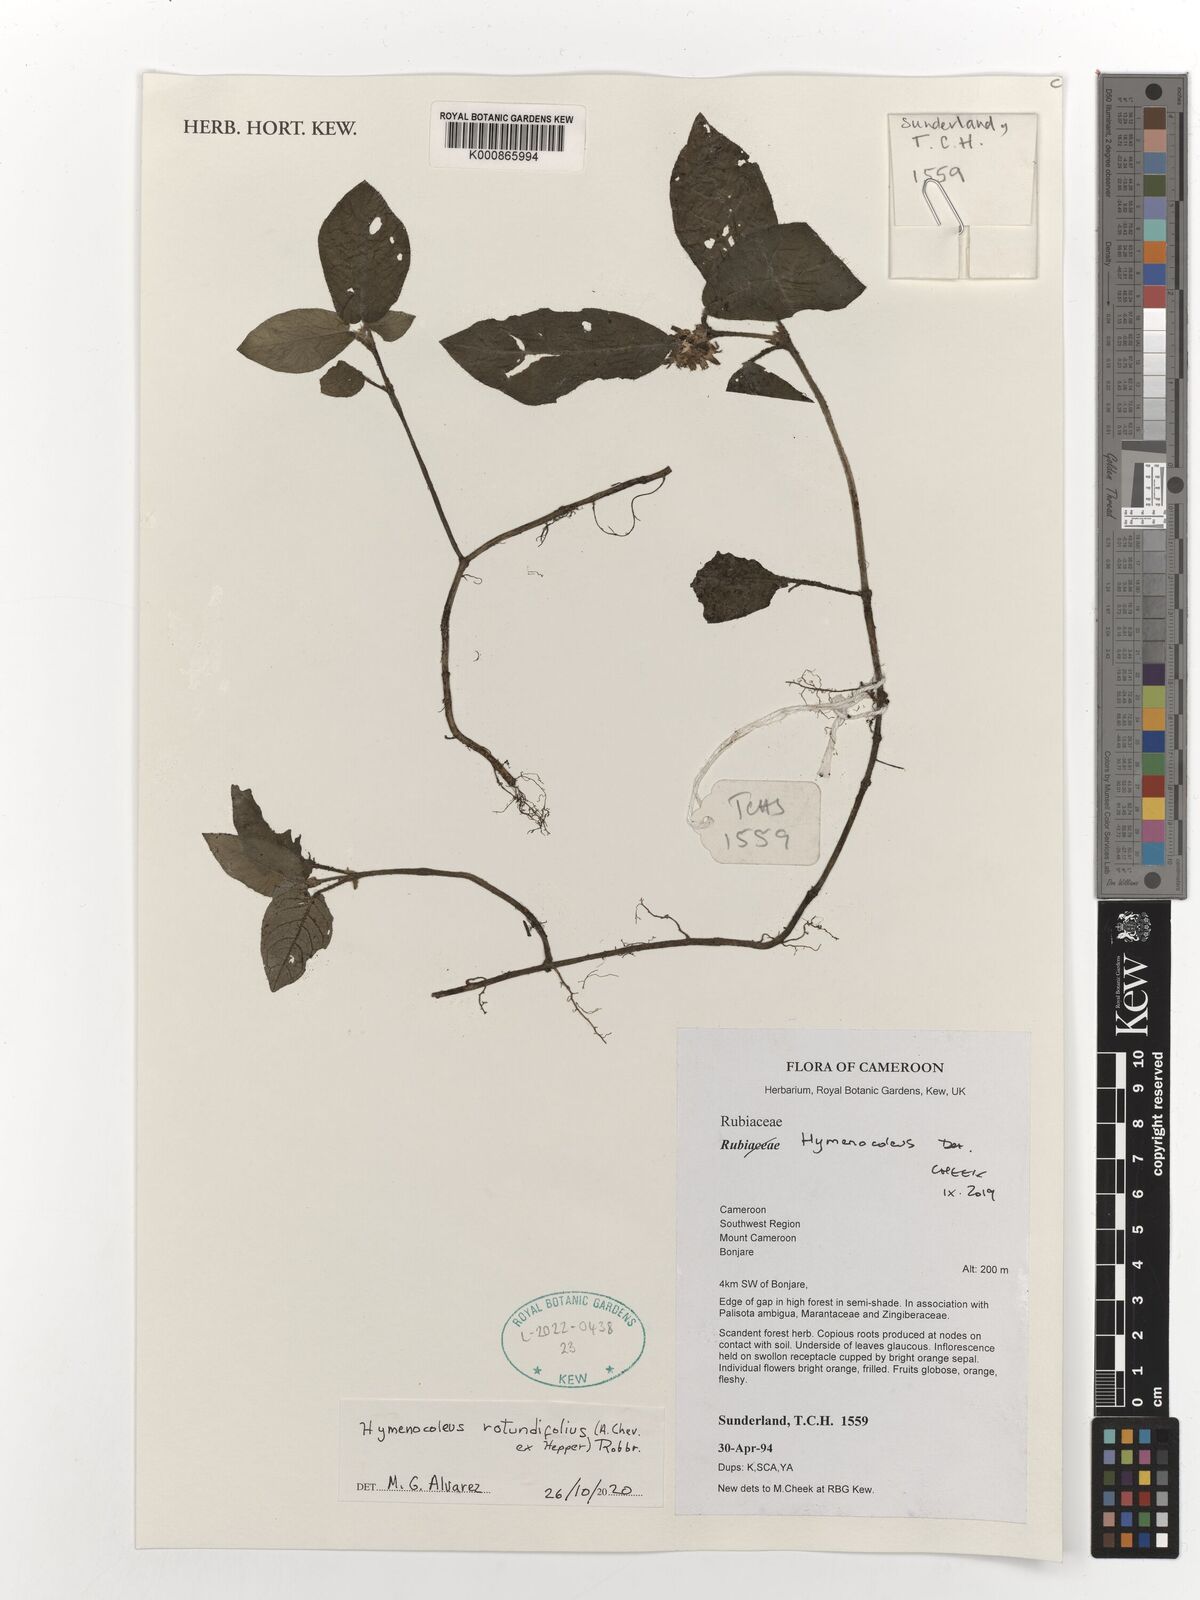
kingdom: Plantae
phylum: Tracheophyta
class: Magnoliopsida
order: Gentianales
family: Rubiaceae
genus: Hymenocoleus
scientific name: Hymenocoleus rotundifolius
